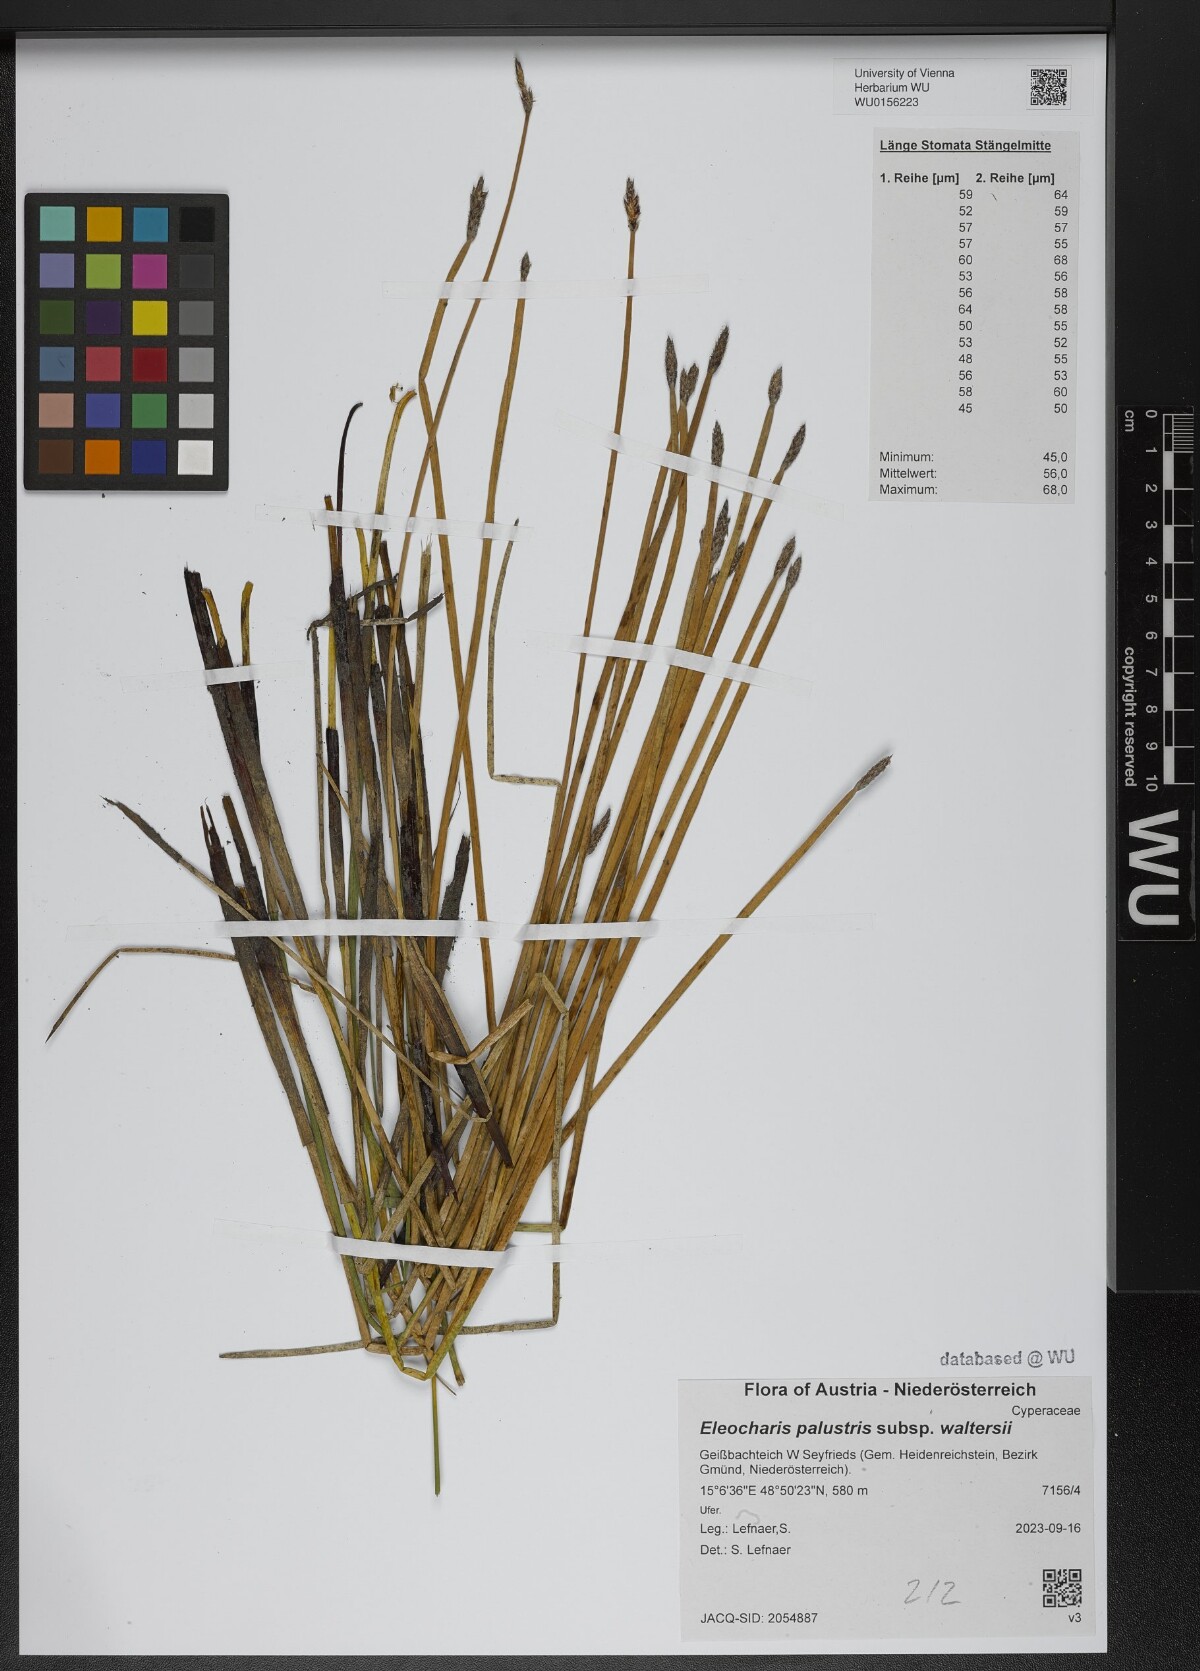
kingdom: Plantae
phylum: Tracheophyta
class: Liliopsida
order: Poales
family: Cyperaceae
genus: Eleocharis
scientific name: Eleocharis palustris
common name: Common spike-rush
